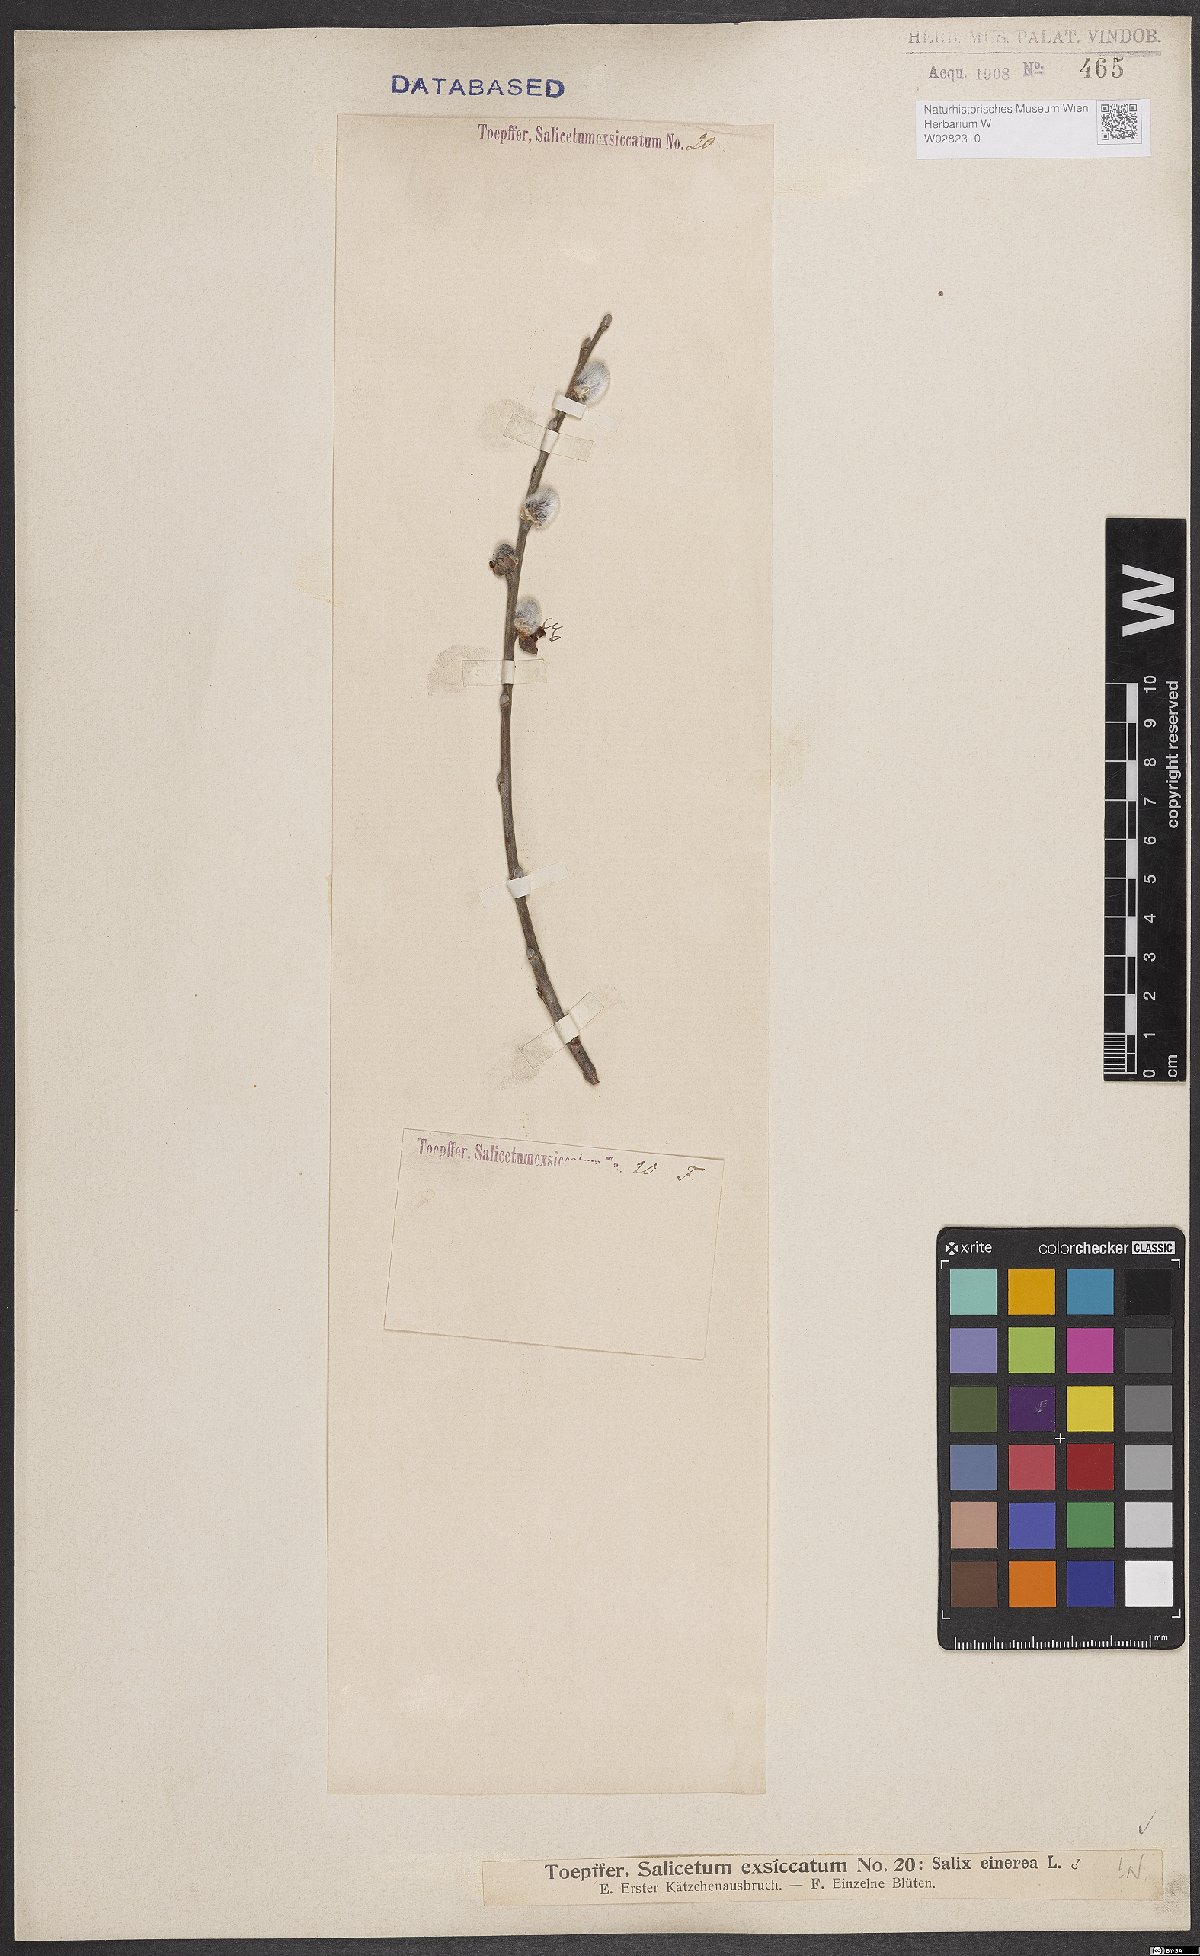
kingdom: Plantae
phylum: Tracheophyta
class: Magnoliopsida
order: Malpighiales
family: Salicaceae
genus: Salix
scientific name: Salix cinerea
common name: Common sallow
